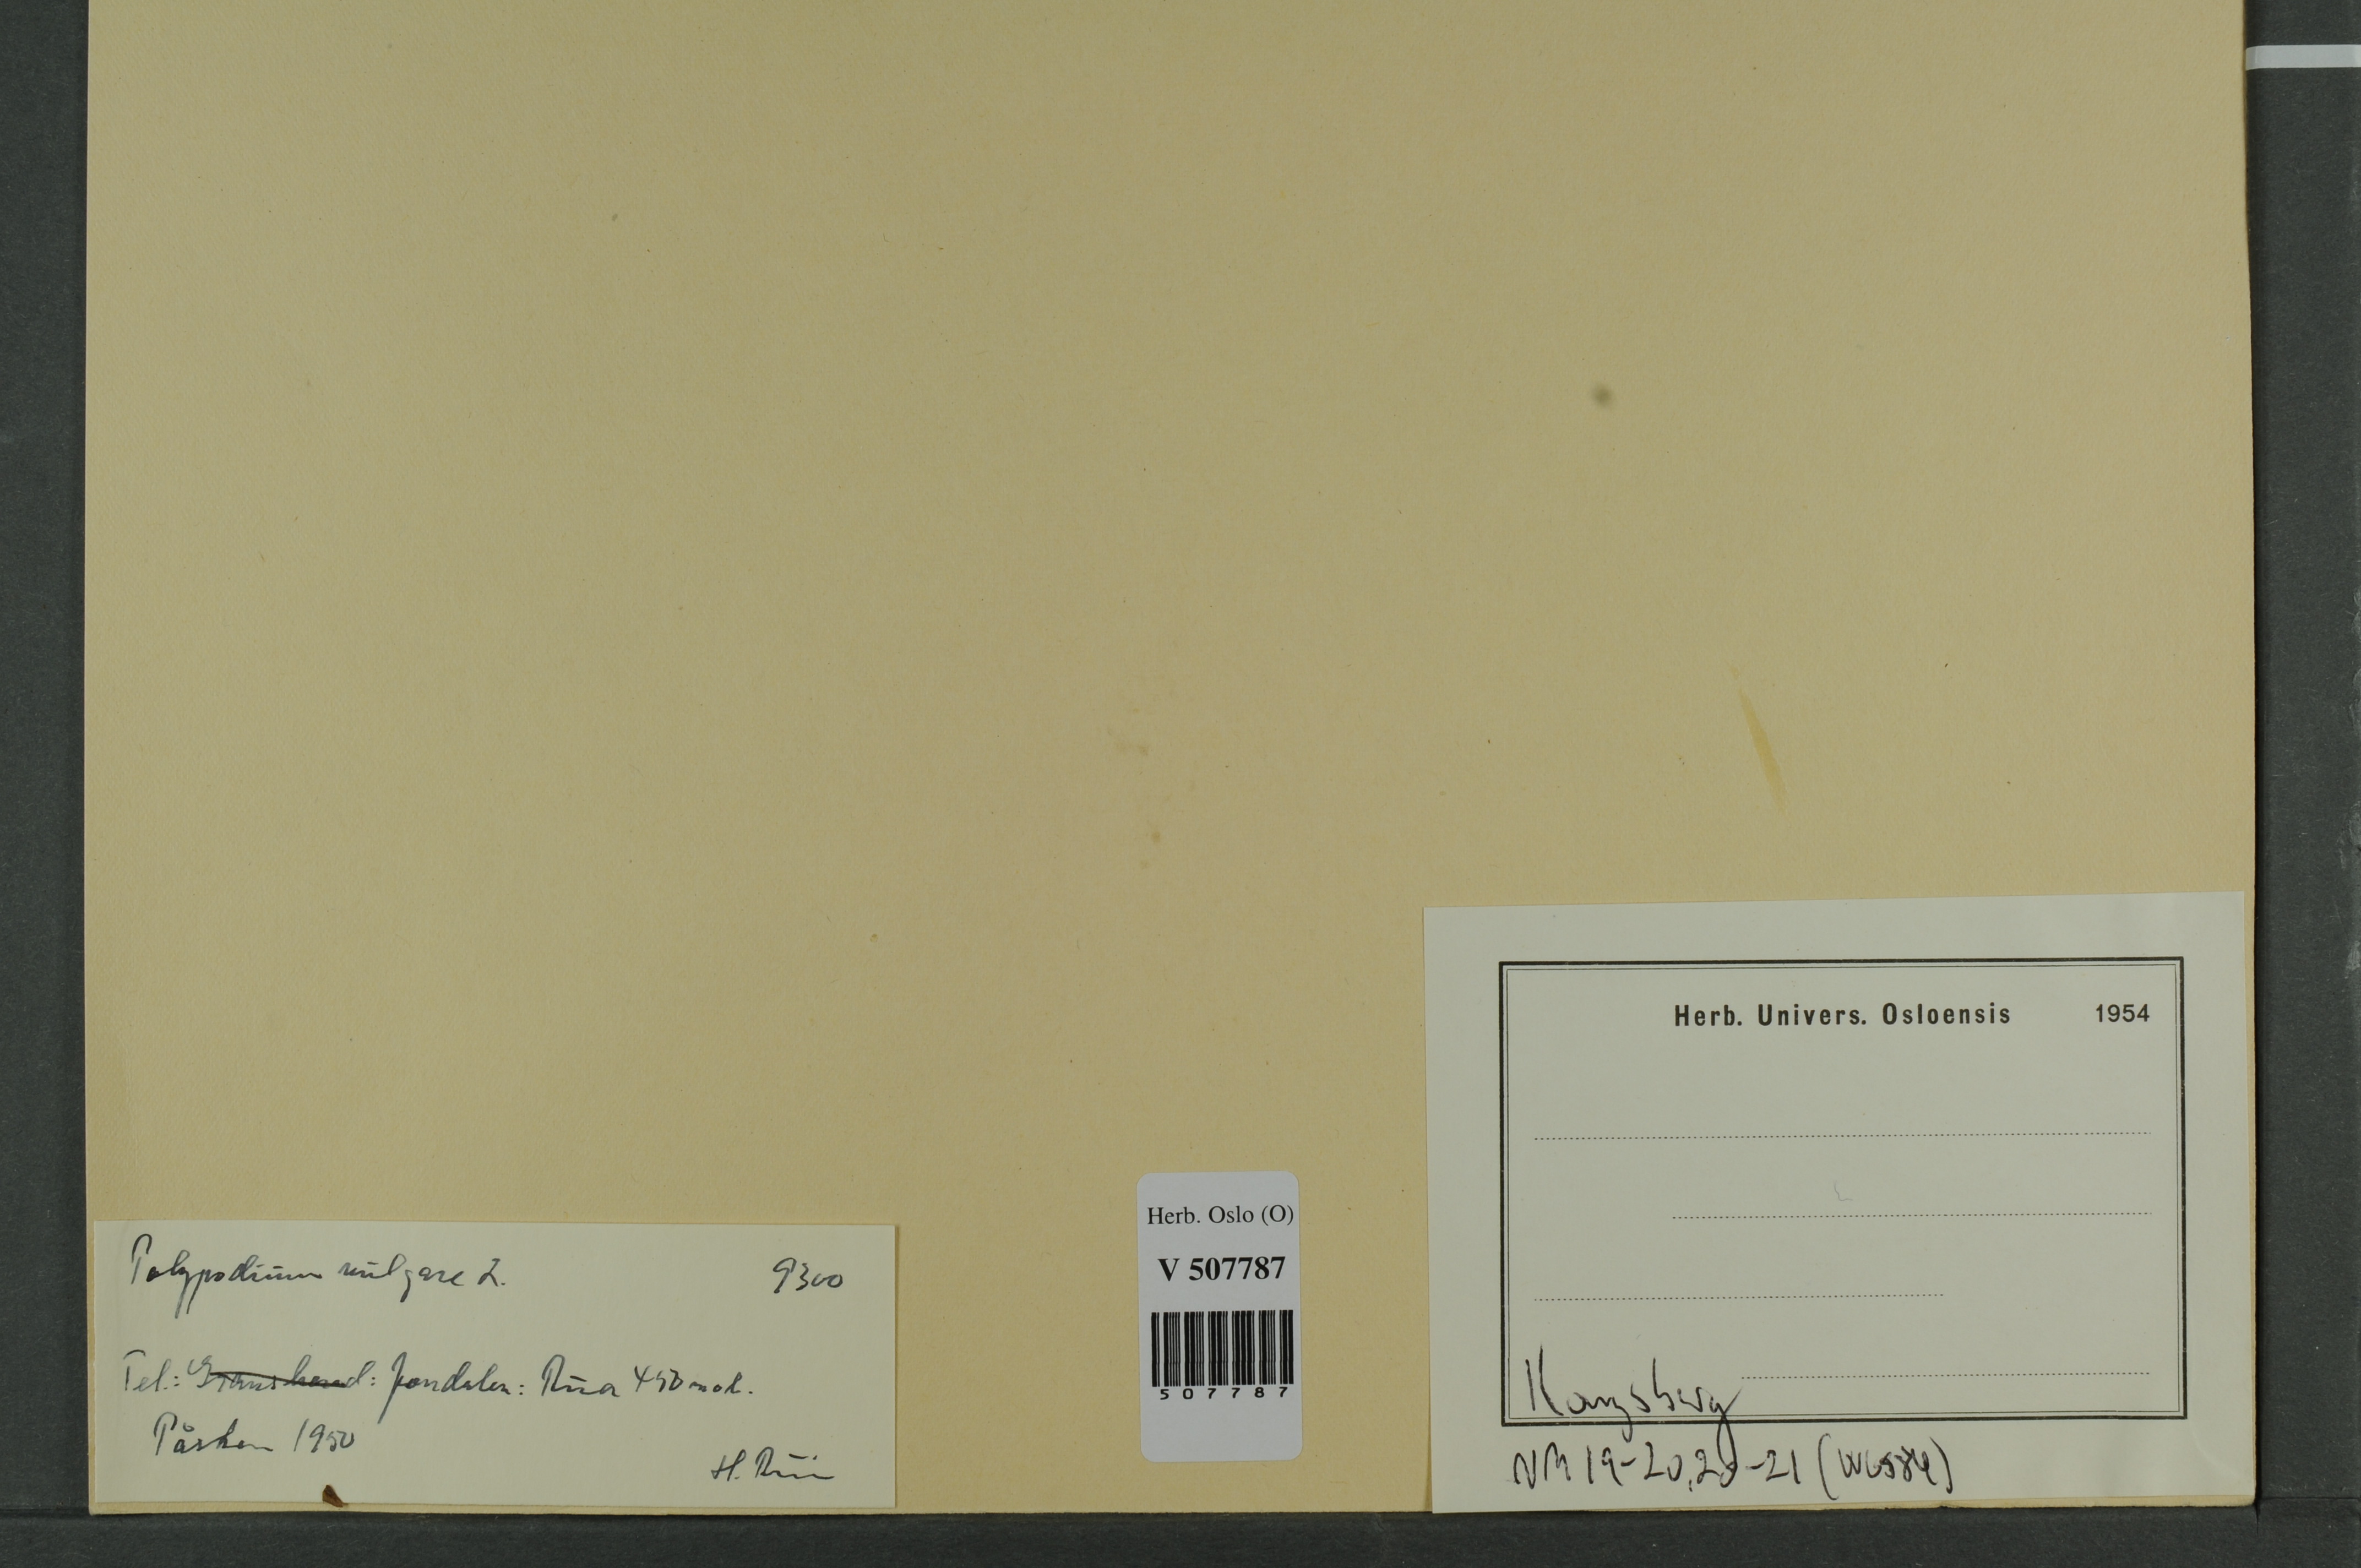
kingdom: Plantae
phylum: Tracheophyta
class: Polypodiopsida
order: Polypodiales
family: Polypodiaceae
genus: Polypodium
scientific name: Polypodium vulgare
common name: Common polypody
